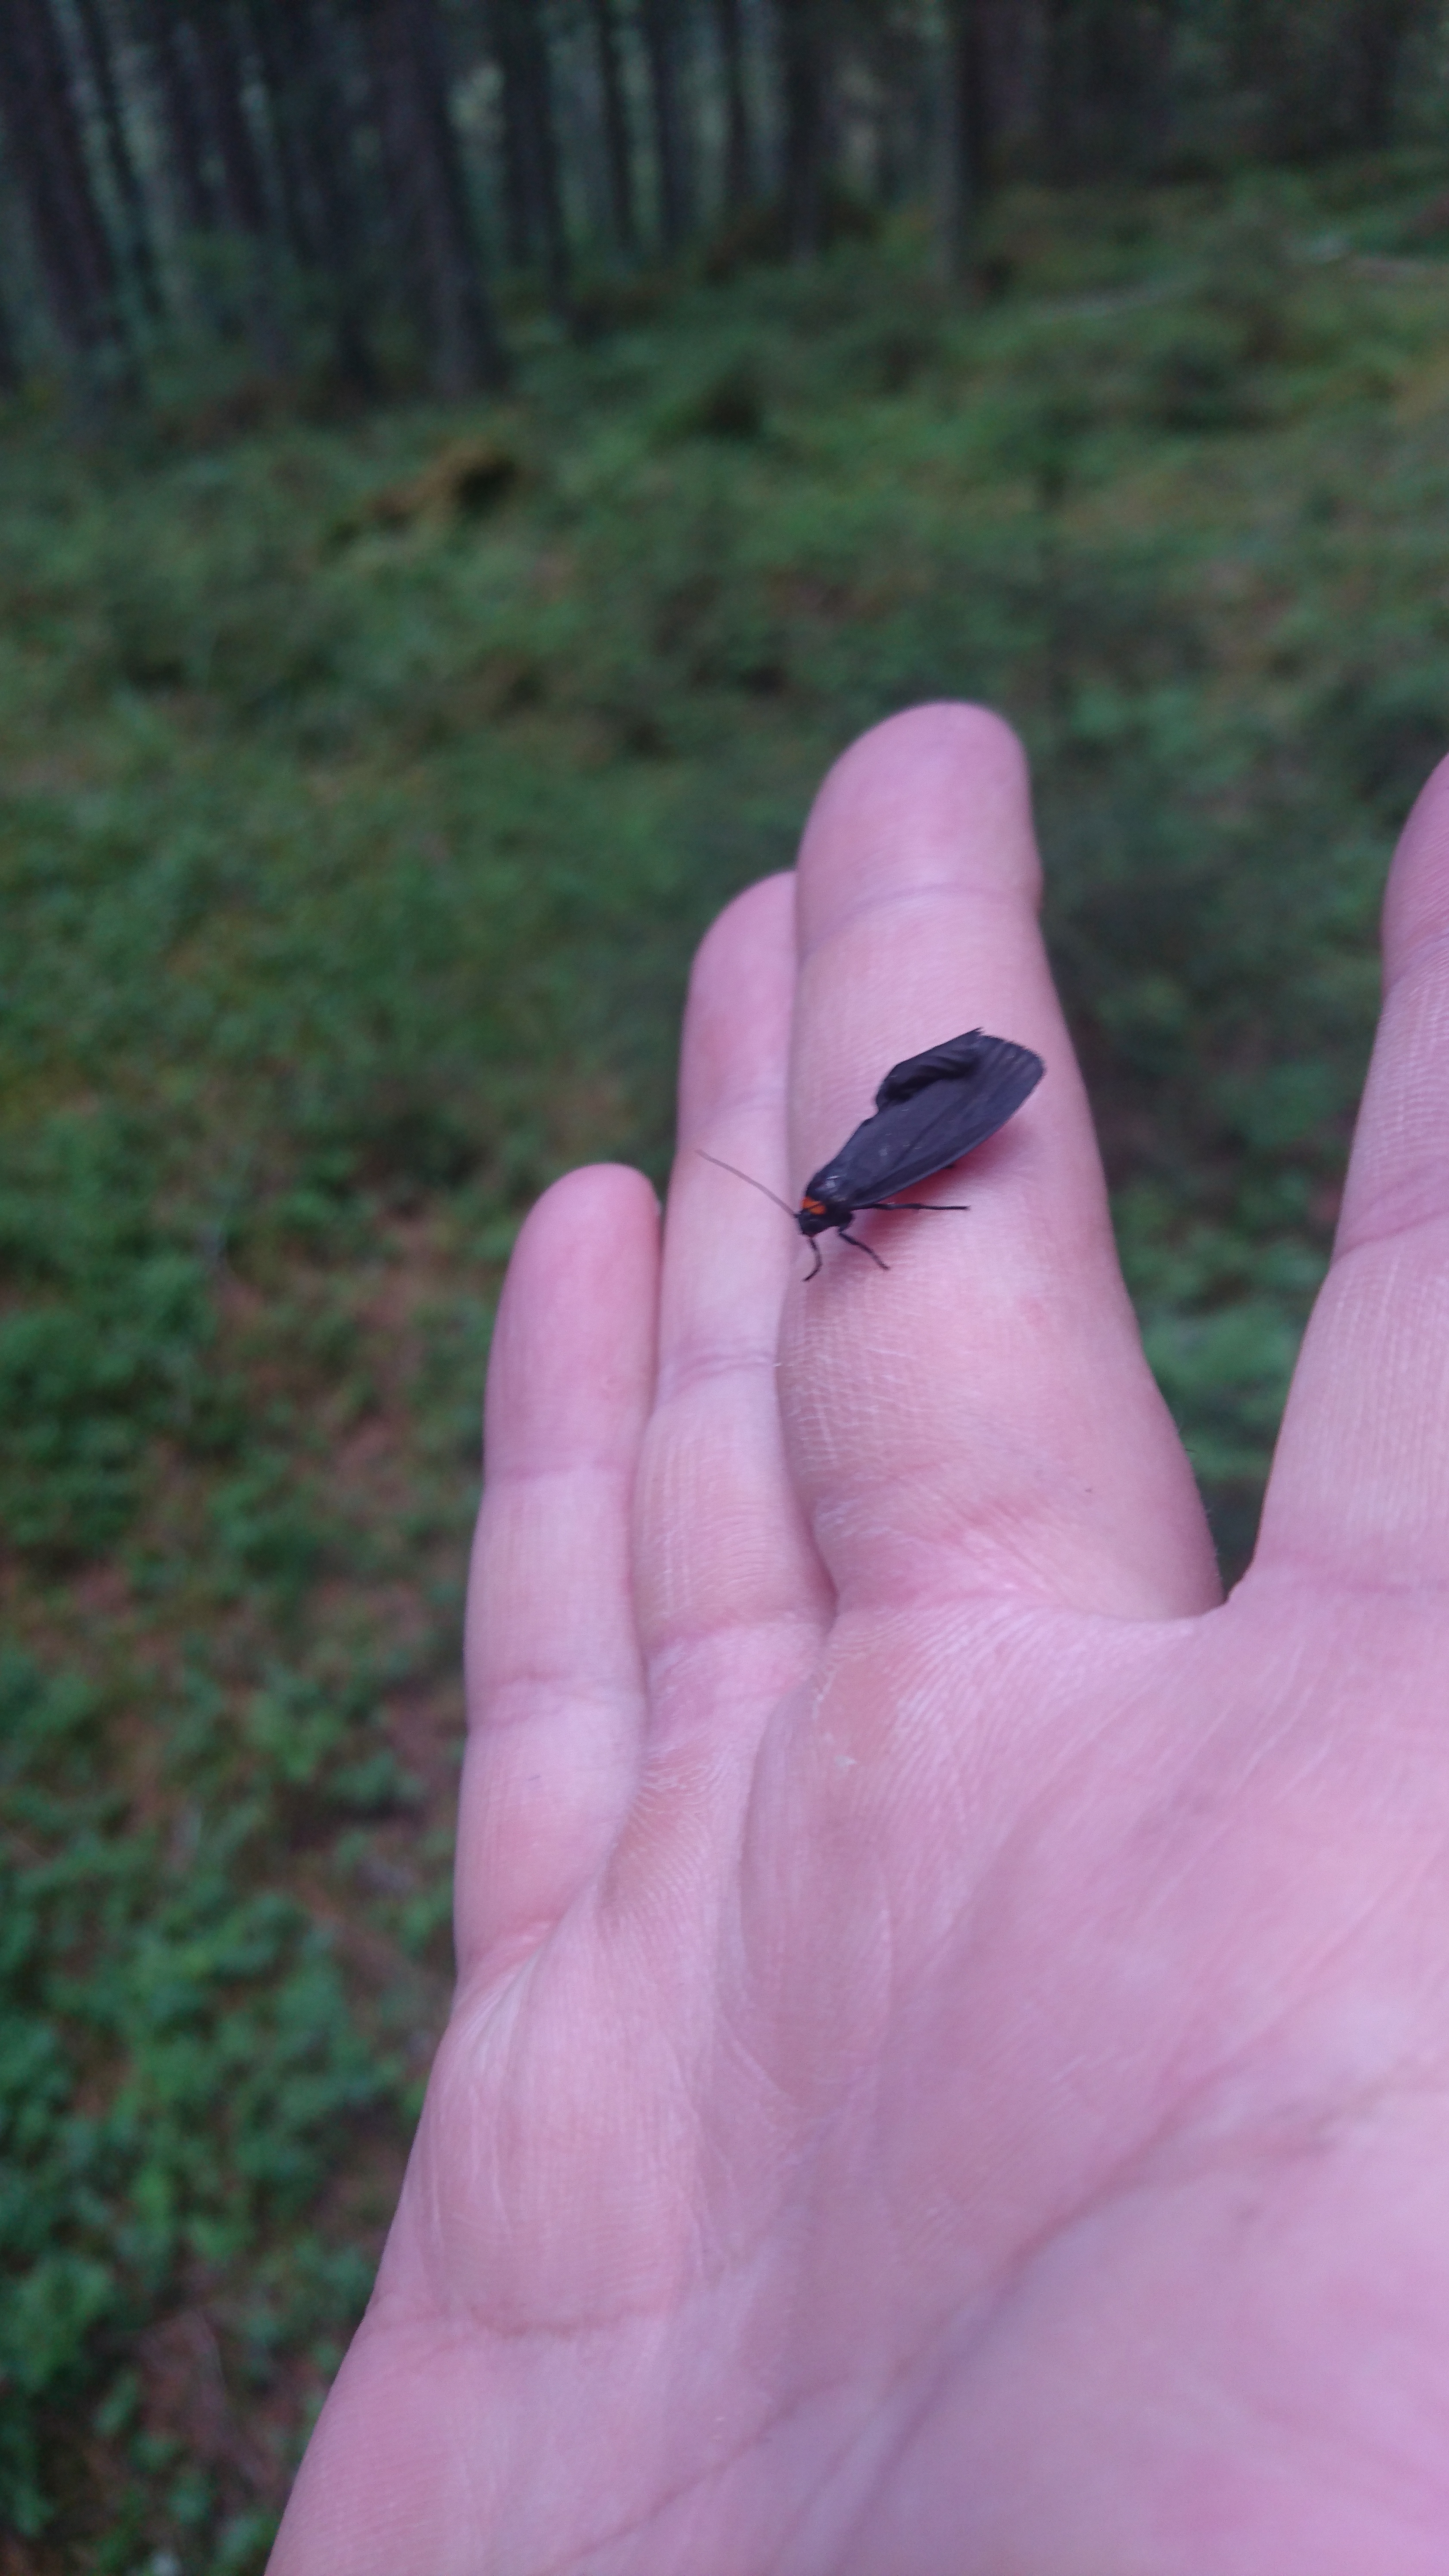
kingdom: Animalia
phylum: Arthropoda
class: Insecta
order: Lepidoptera
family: Erebidae
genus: Atolmis
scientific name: Atolmis rubricollis
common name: Red-necked footman
